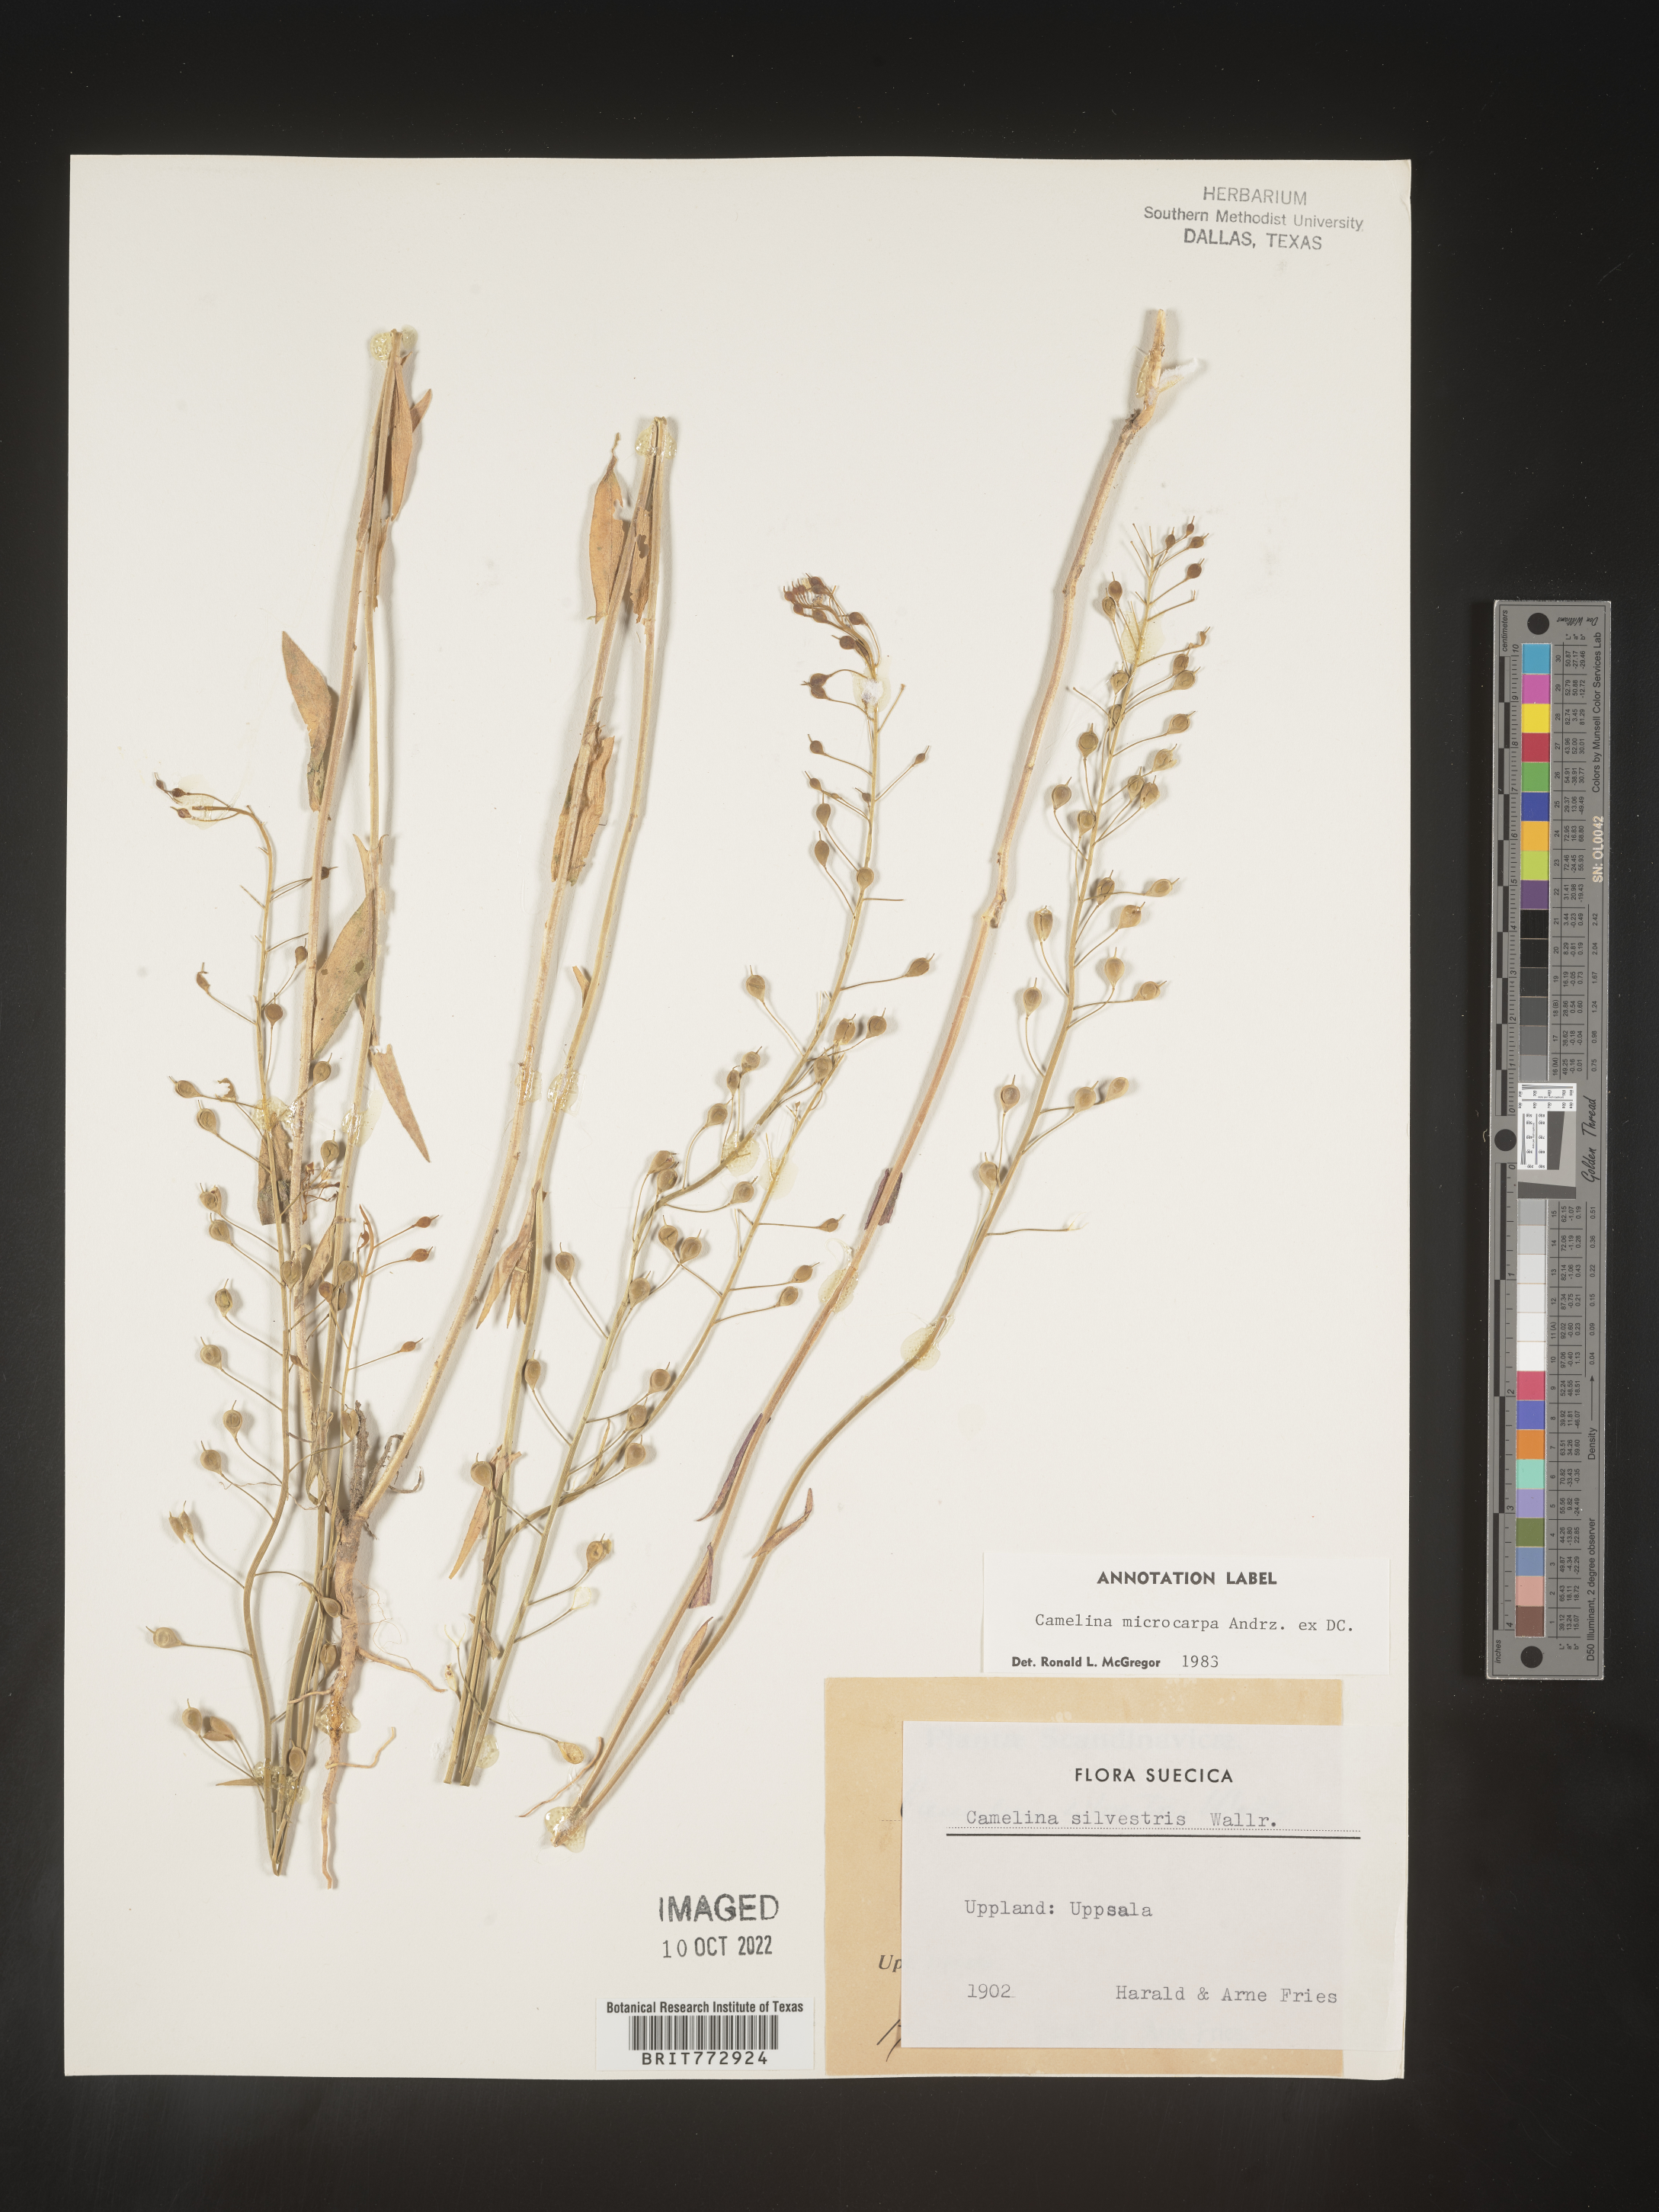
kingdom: Plantae
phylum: Tracheophyta
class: Magnoliopsida
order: Brassicales
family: Brassicaceae
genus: Camelina
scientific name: Camelina
